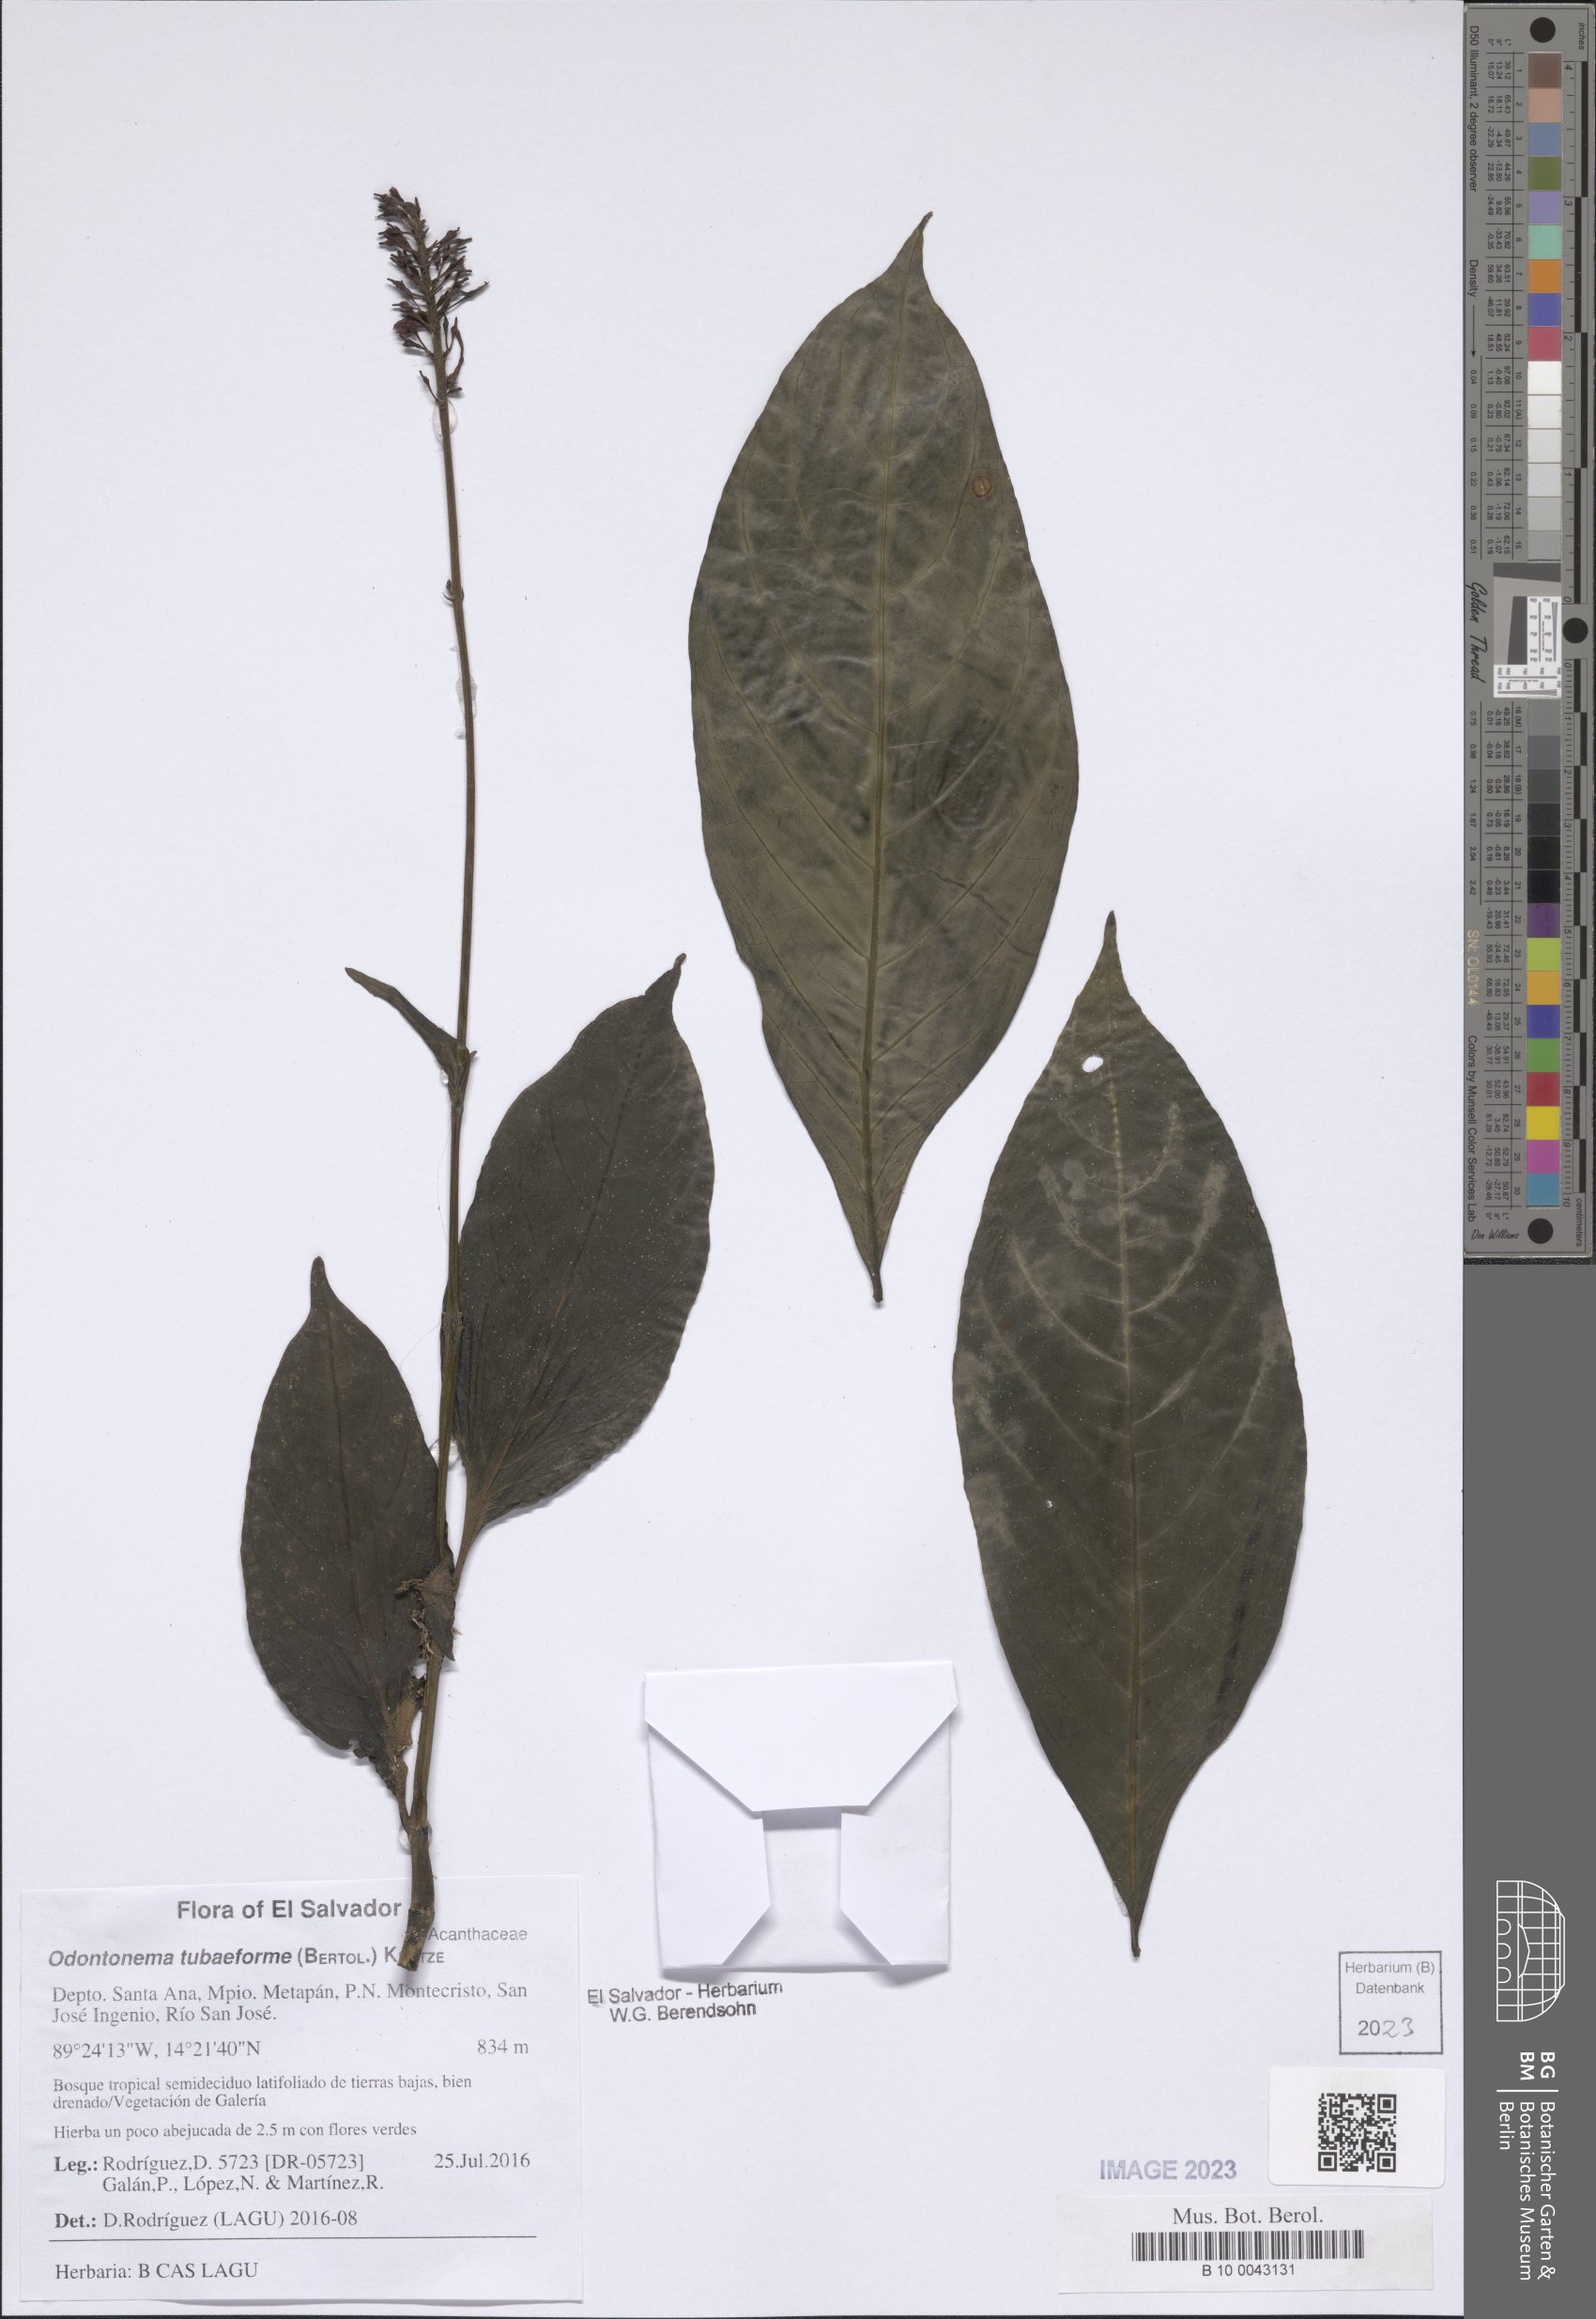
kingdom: Plantae
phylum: Tracheophyta
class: Magnoliopsida
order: Lamiales
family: Acanthaceae
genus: Odontonema
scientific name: Odontonema tubaeforme
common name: Firespike
